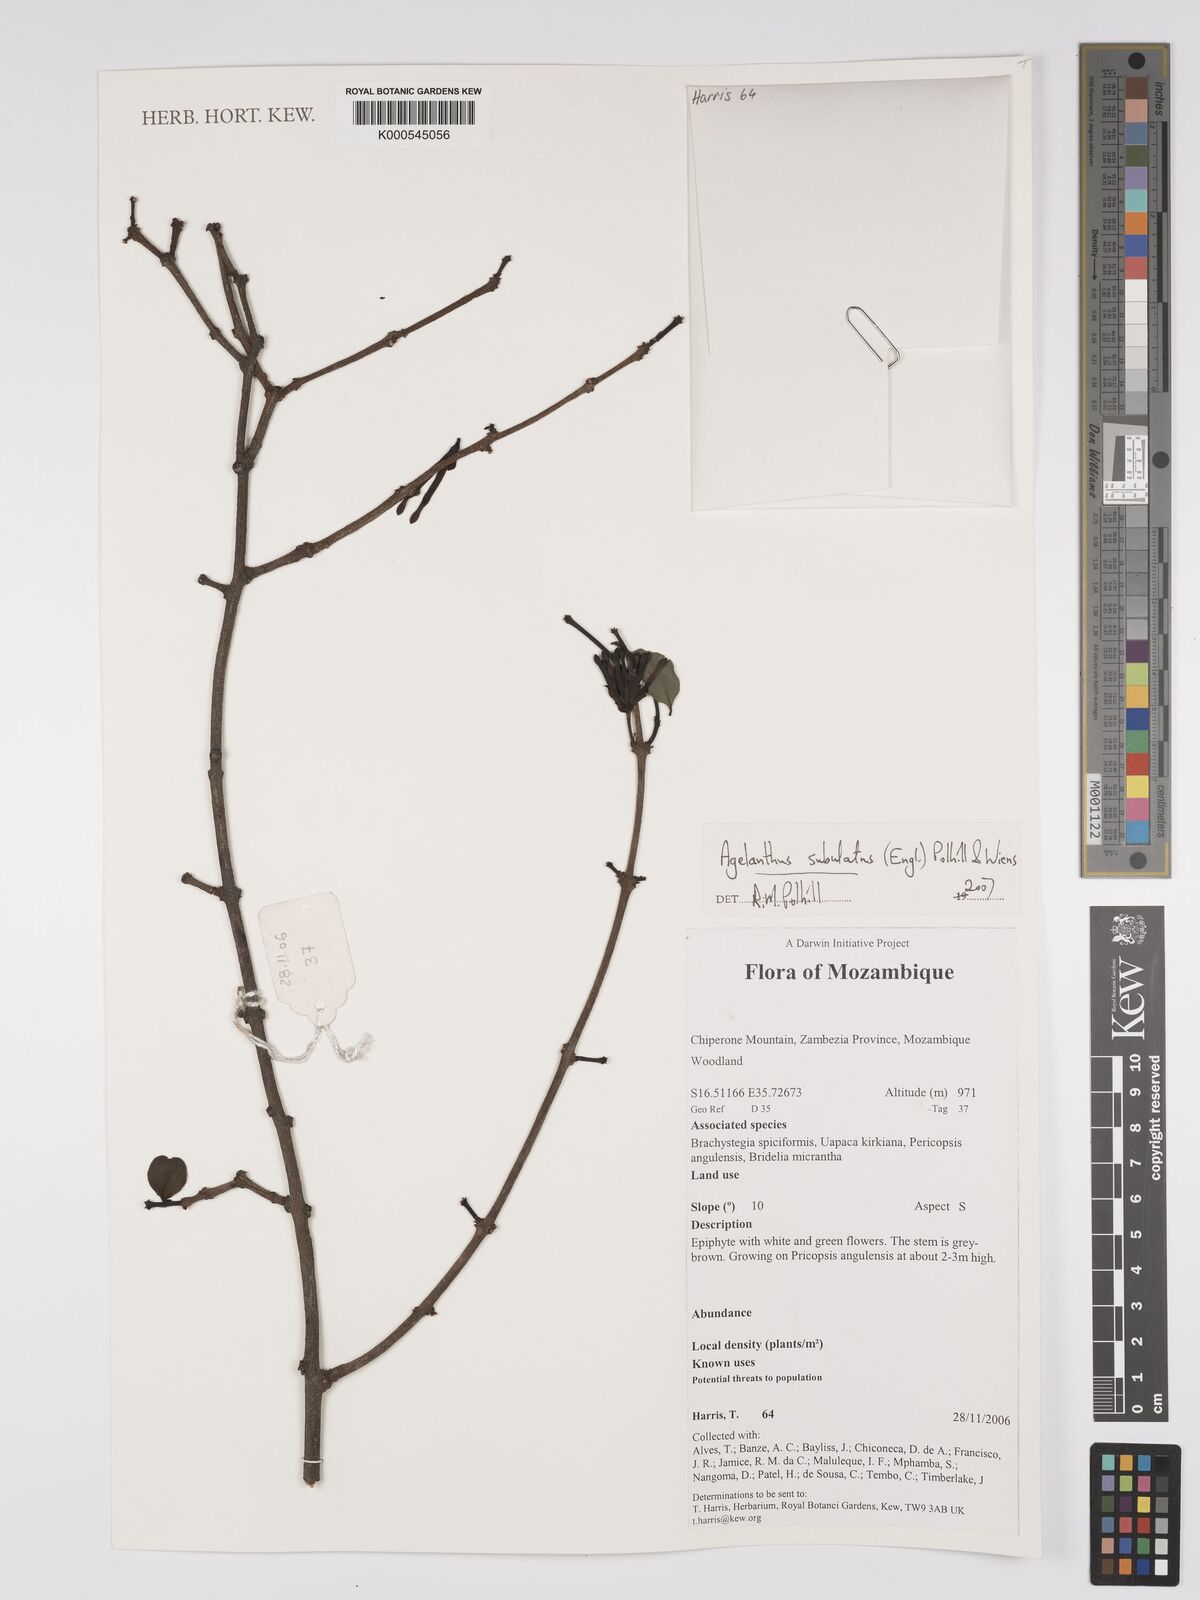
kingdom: Plantae
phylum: Tracheophyta
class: Magnoliopsida
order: Santalales
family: Loranthaceae
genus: Agelanthus
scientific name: Agelanthus subulatus
